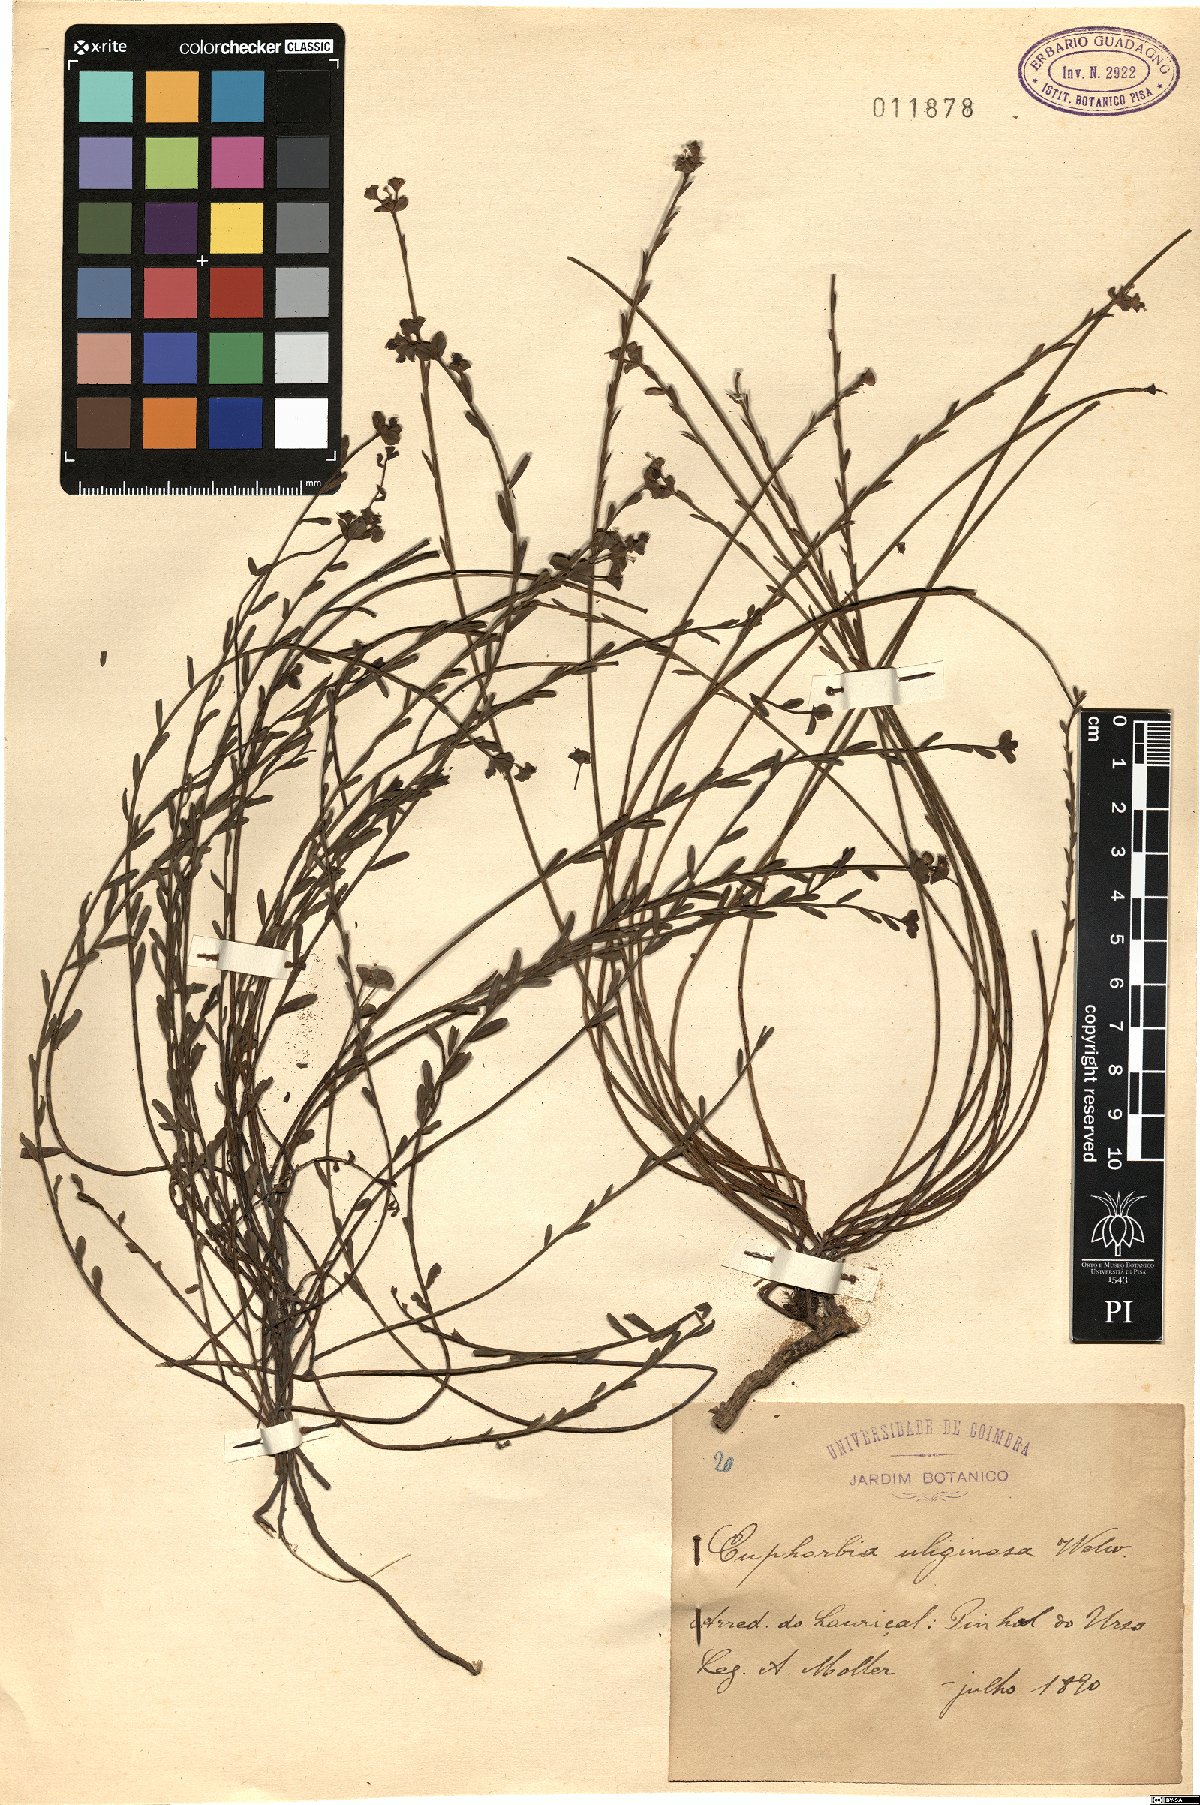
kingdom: Plantae
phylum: Tracheophyta
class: Magnoliopsida
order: Malpighiales
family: Euphorbiaceae
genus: Euphorbia
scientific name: Euphorbia uliginosa
